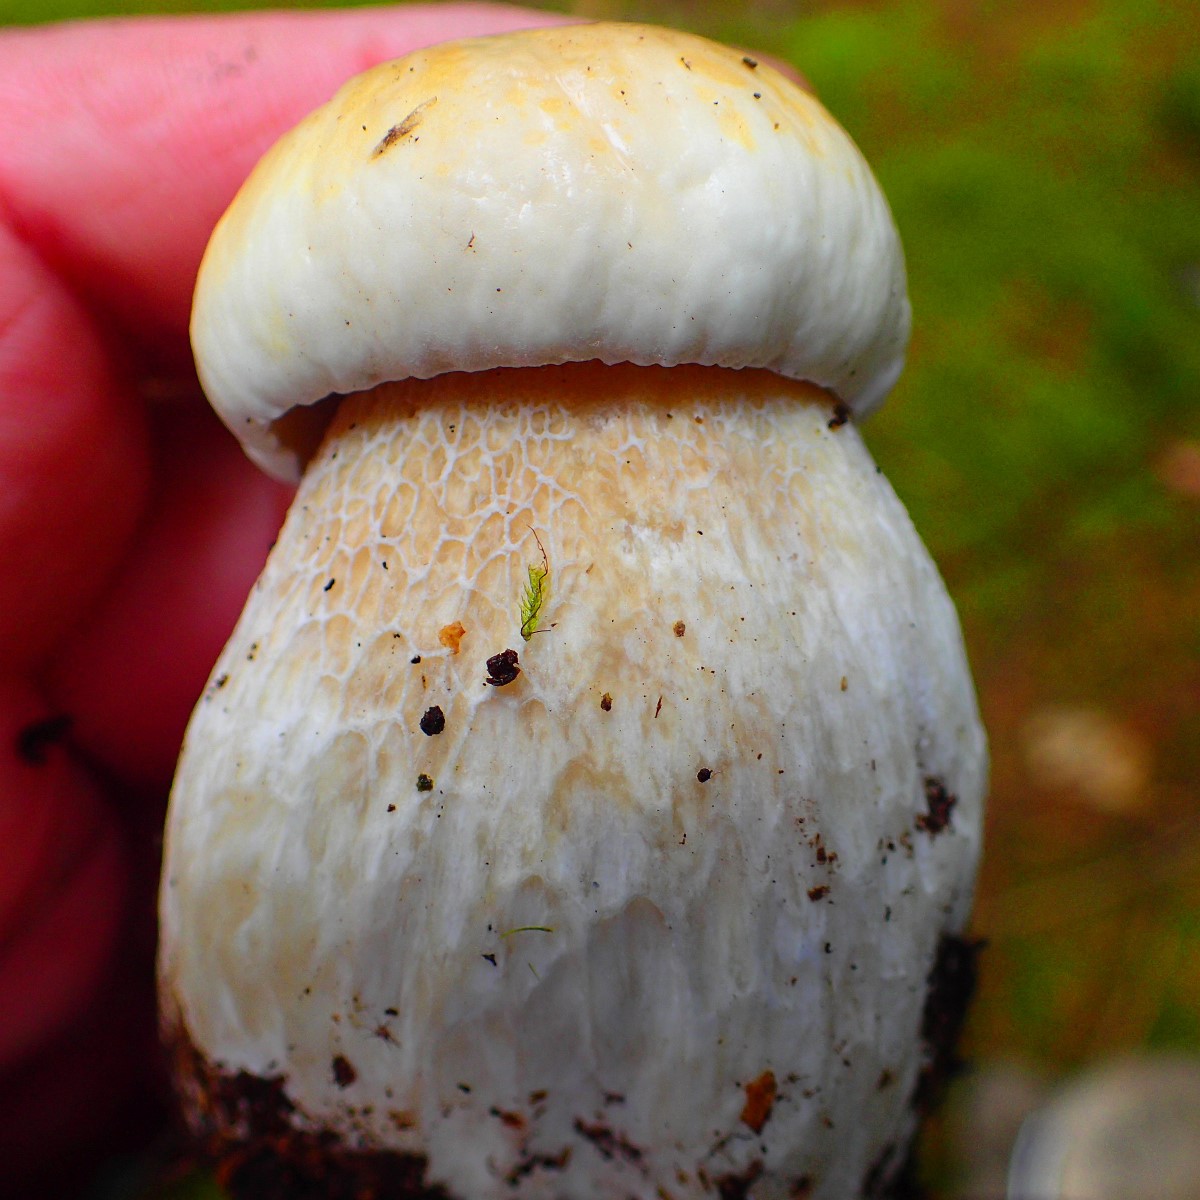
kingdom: Fungi
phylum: Basidiomycota
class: Agaricomycetes
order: Boletales
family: Boletaceae
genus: Boletus
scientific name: Boletus edulis
